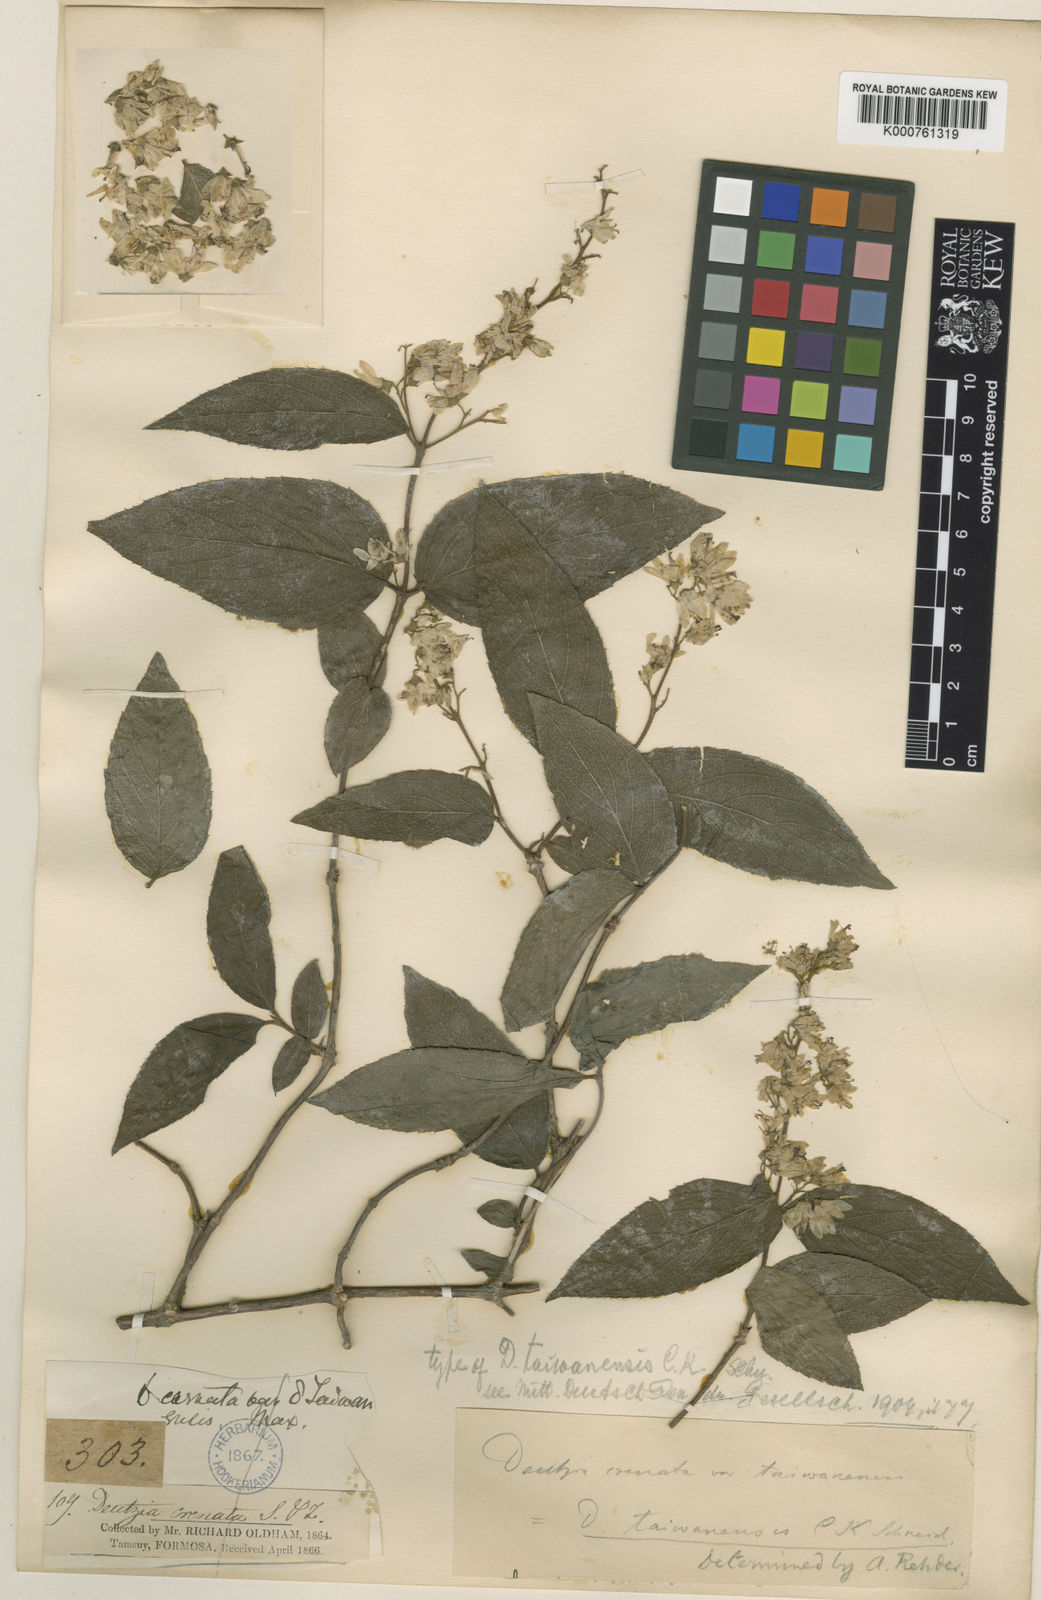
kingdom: Plantae
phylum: Tracheophyta
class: Magnoliopsida
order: Cornales
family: Hydrangeaceae
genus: Deutzia
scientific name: Deutzia taiwanensis
